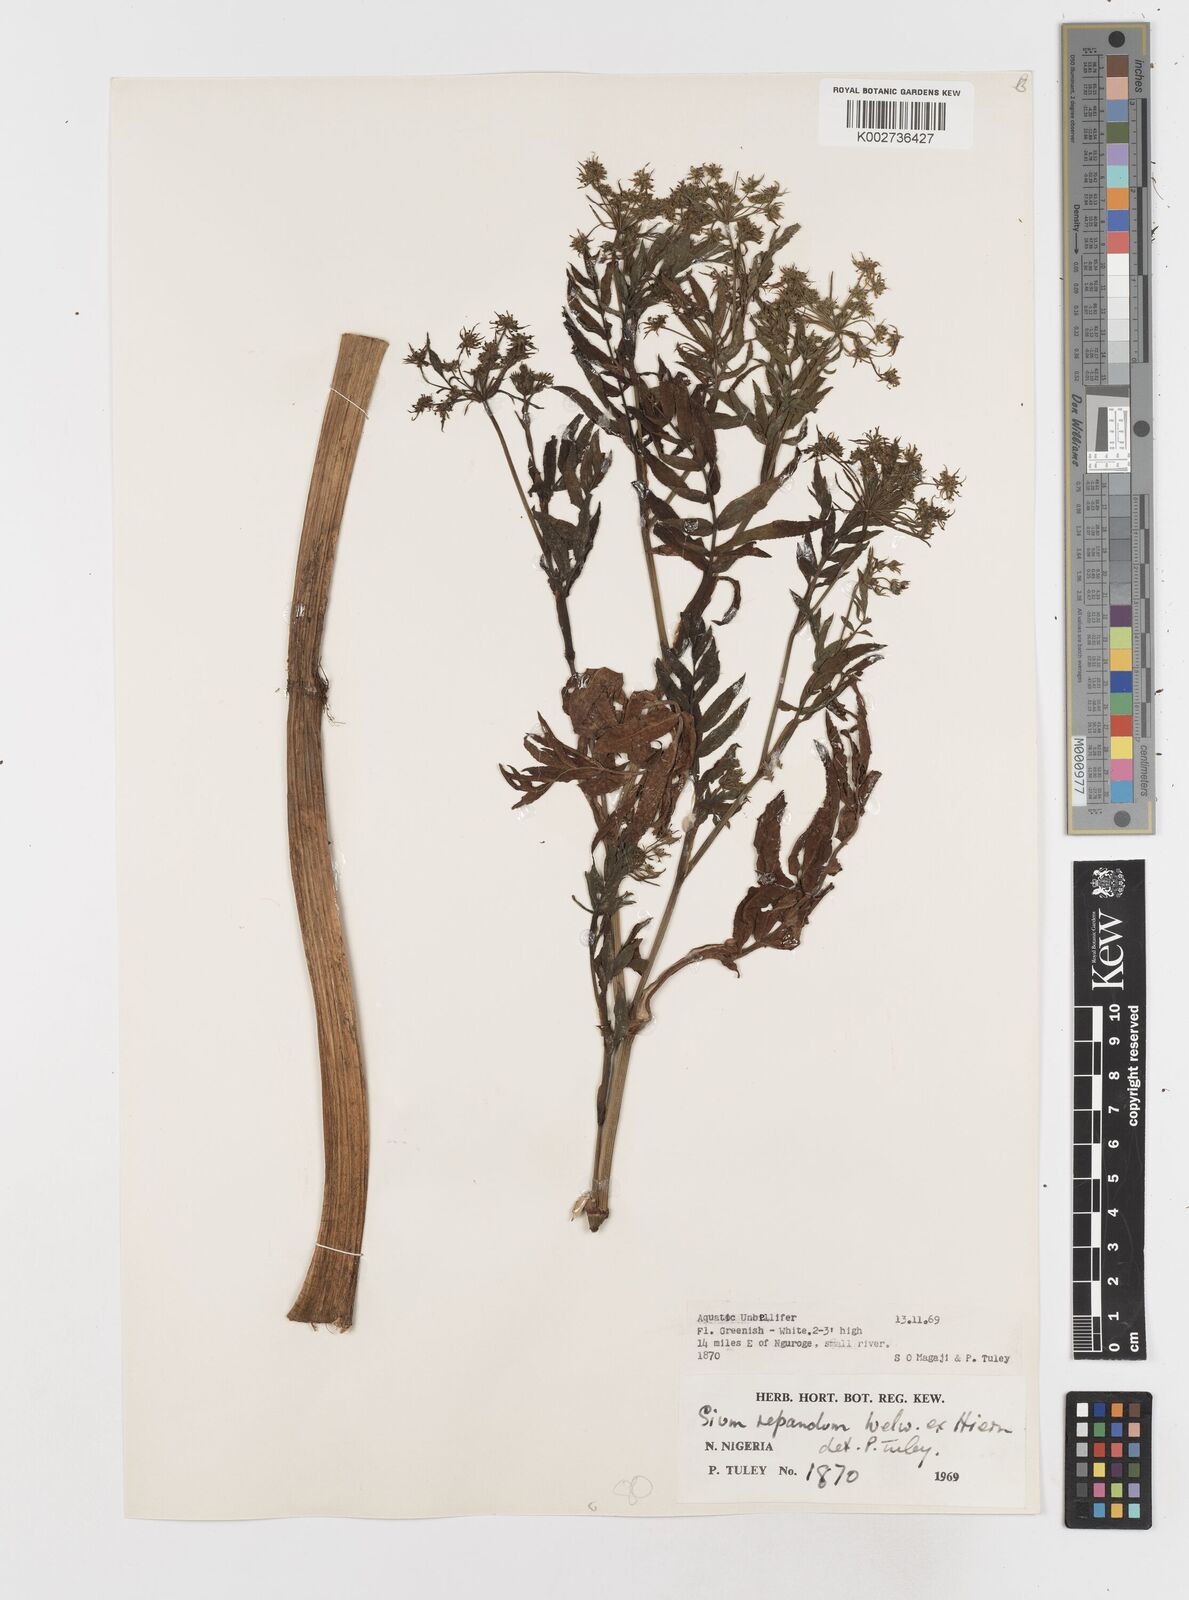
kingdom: Plantae
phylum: Tracheophyta
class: Magnoliopsida
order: Apiales
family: Apiaceae
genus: Berula
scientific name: Berula repanda
